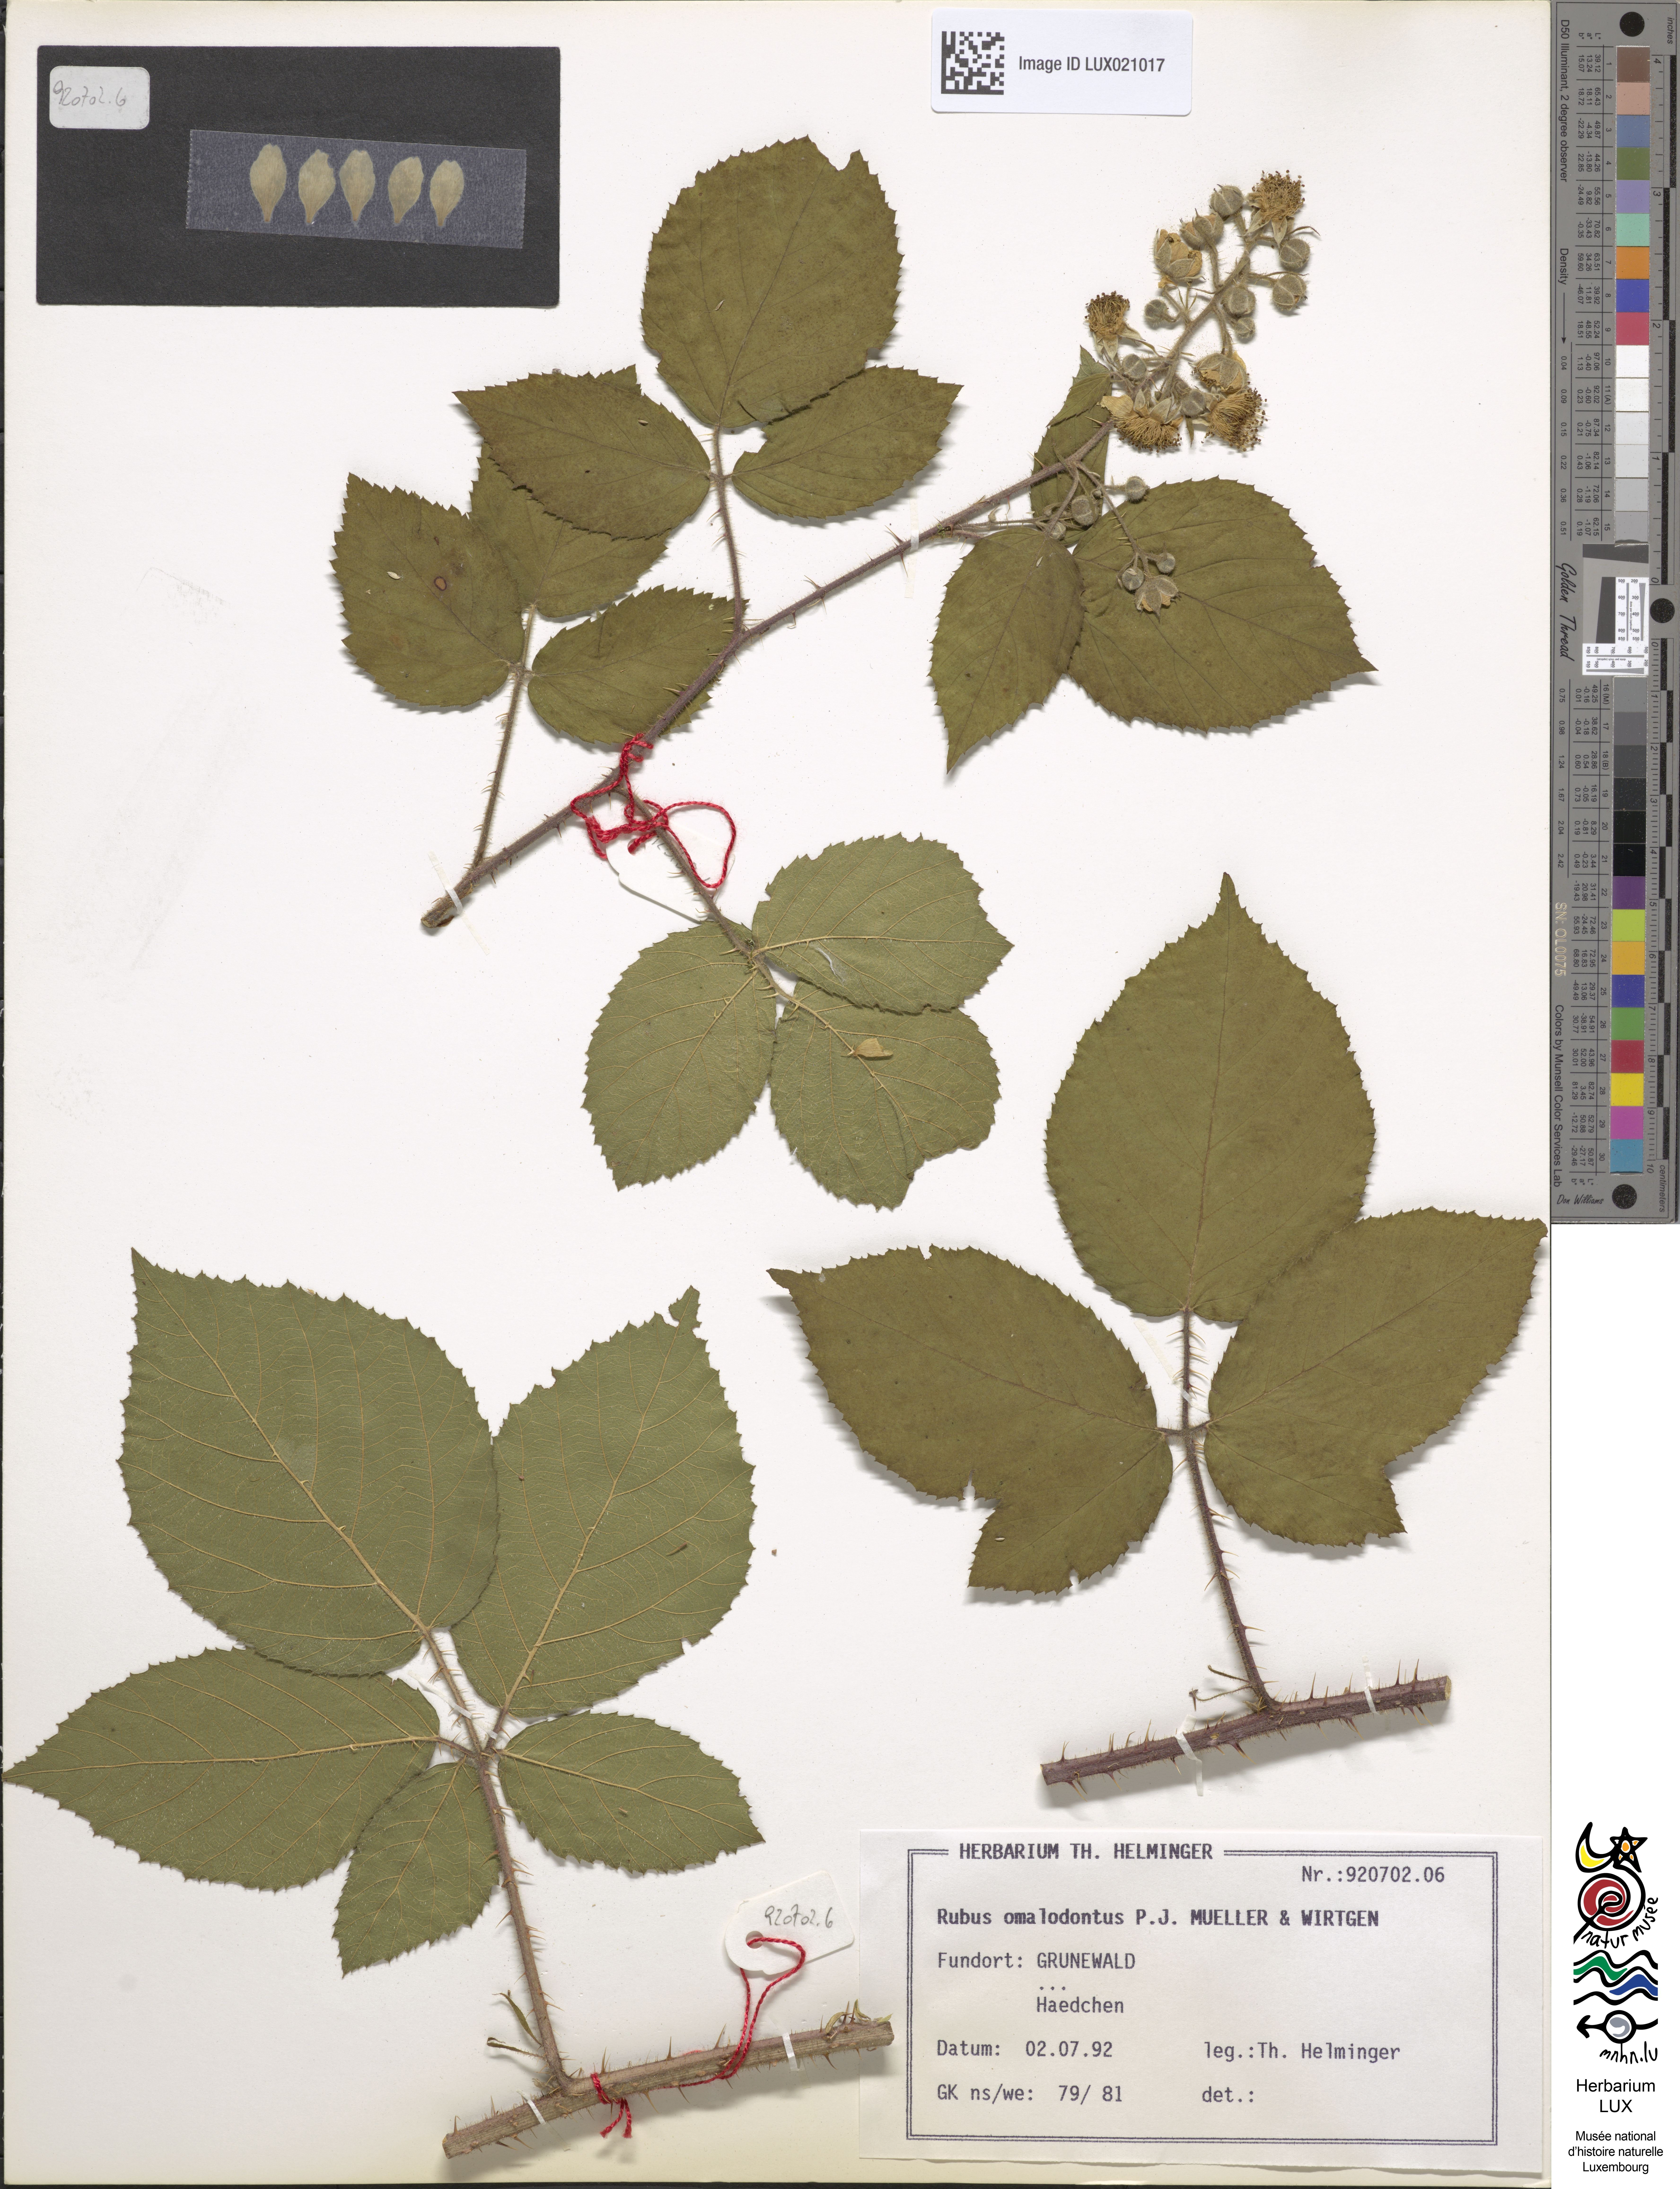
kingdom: Plantae
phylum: Tracheophyta
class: Magnoliopsida
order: Rosales
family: Rosaceae
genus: Rubus
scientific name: Rubus omalodontos
